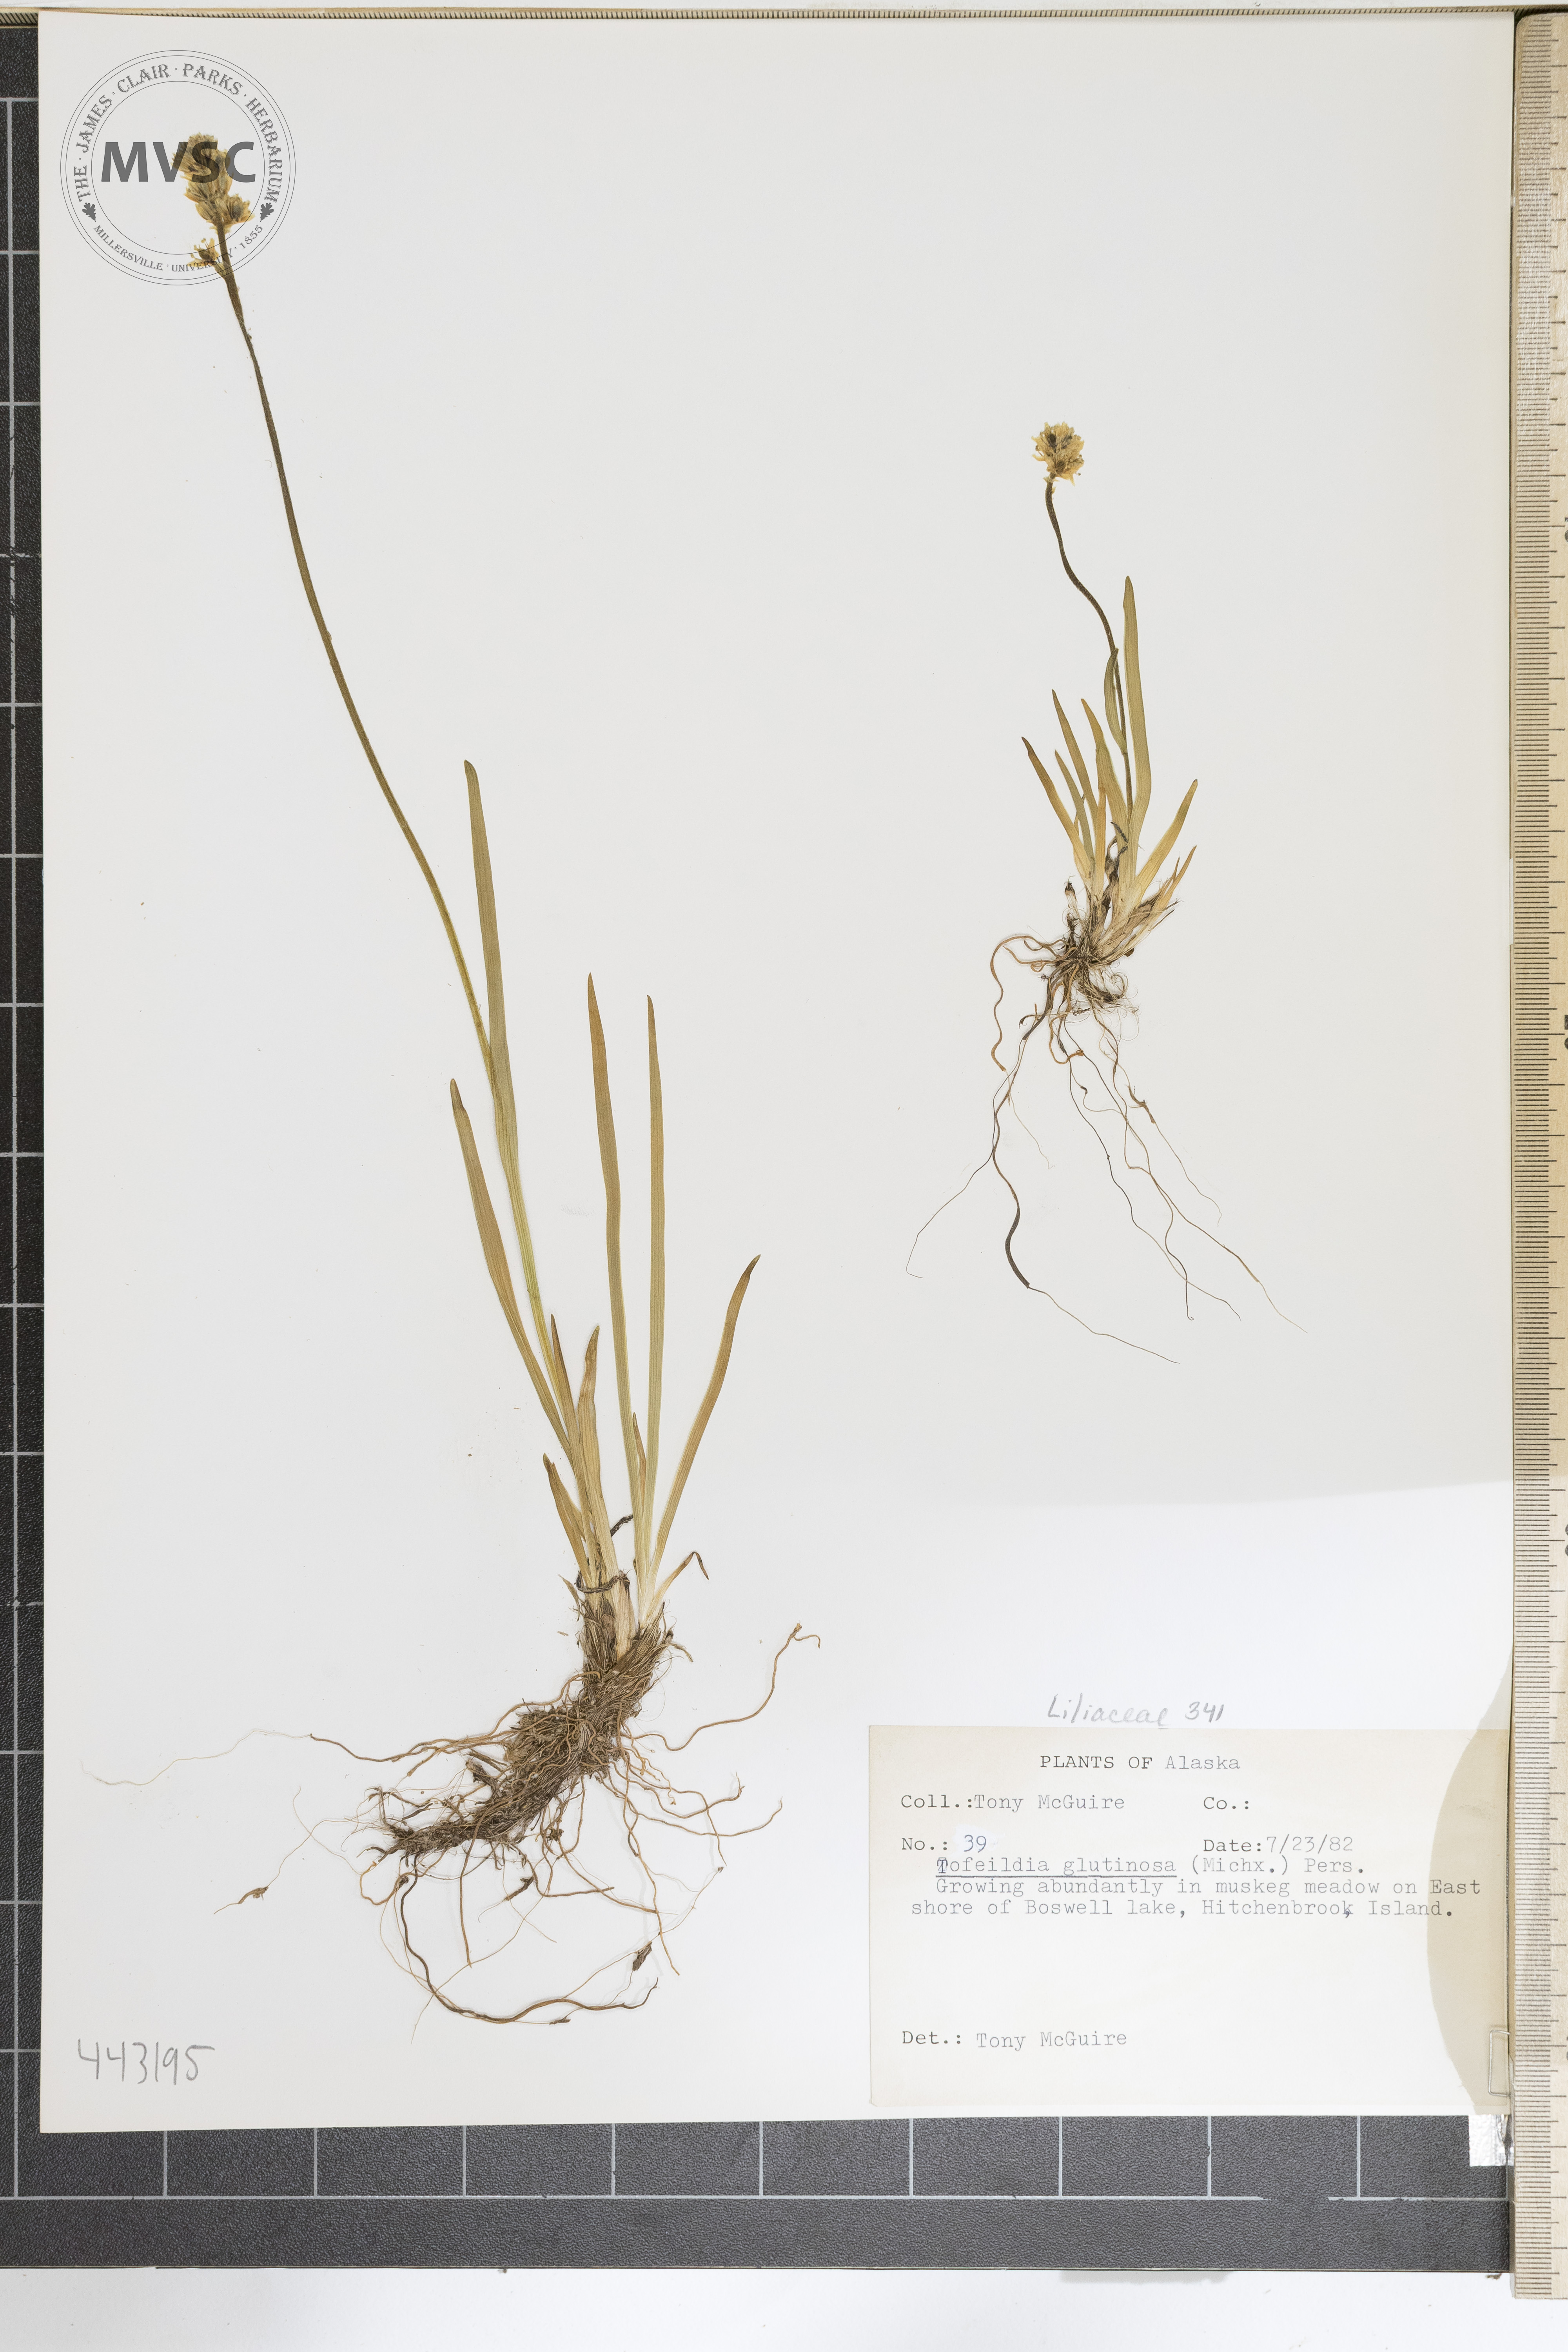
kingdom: Plantae
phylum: Tracheophyta
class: Liliopsida
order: Alismatales
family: Tofieldiaceae
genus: Triantha
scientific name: Triantha glutinosa
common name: Glutinous tofieldia
